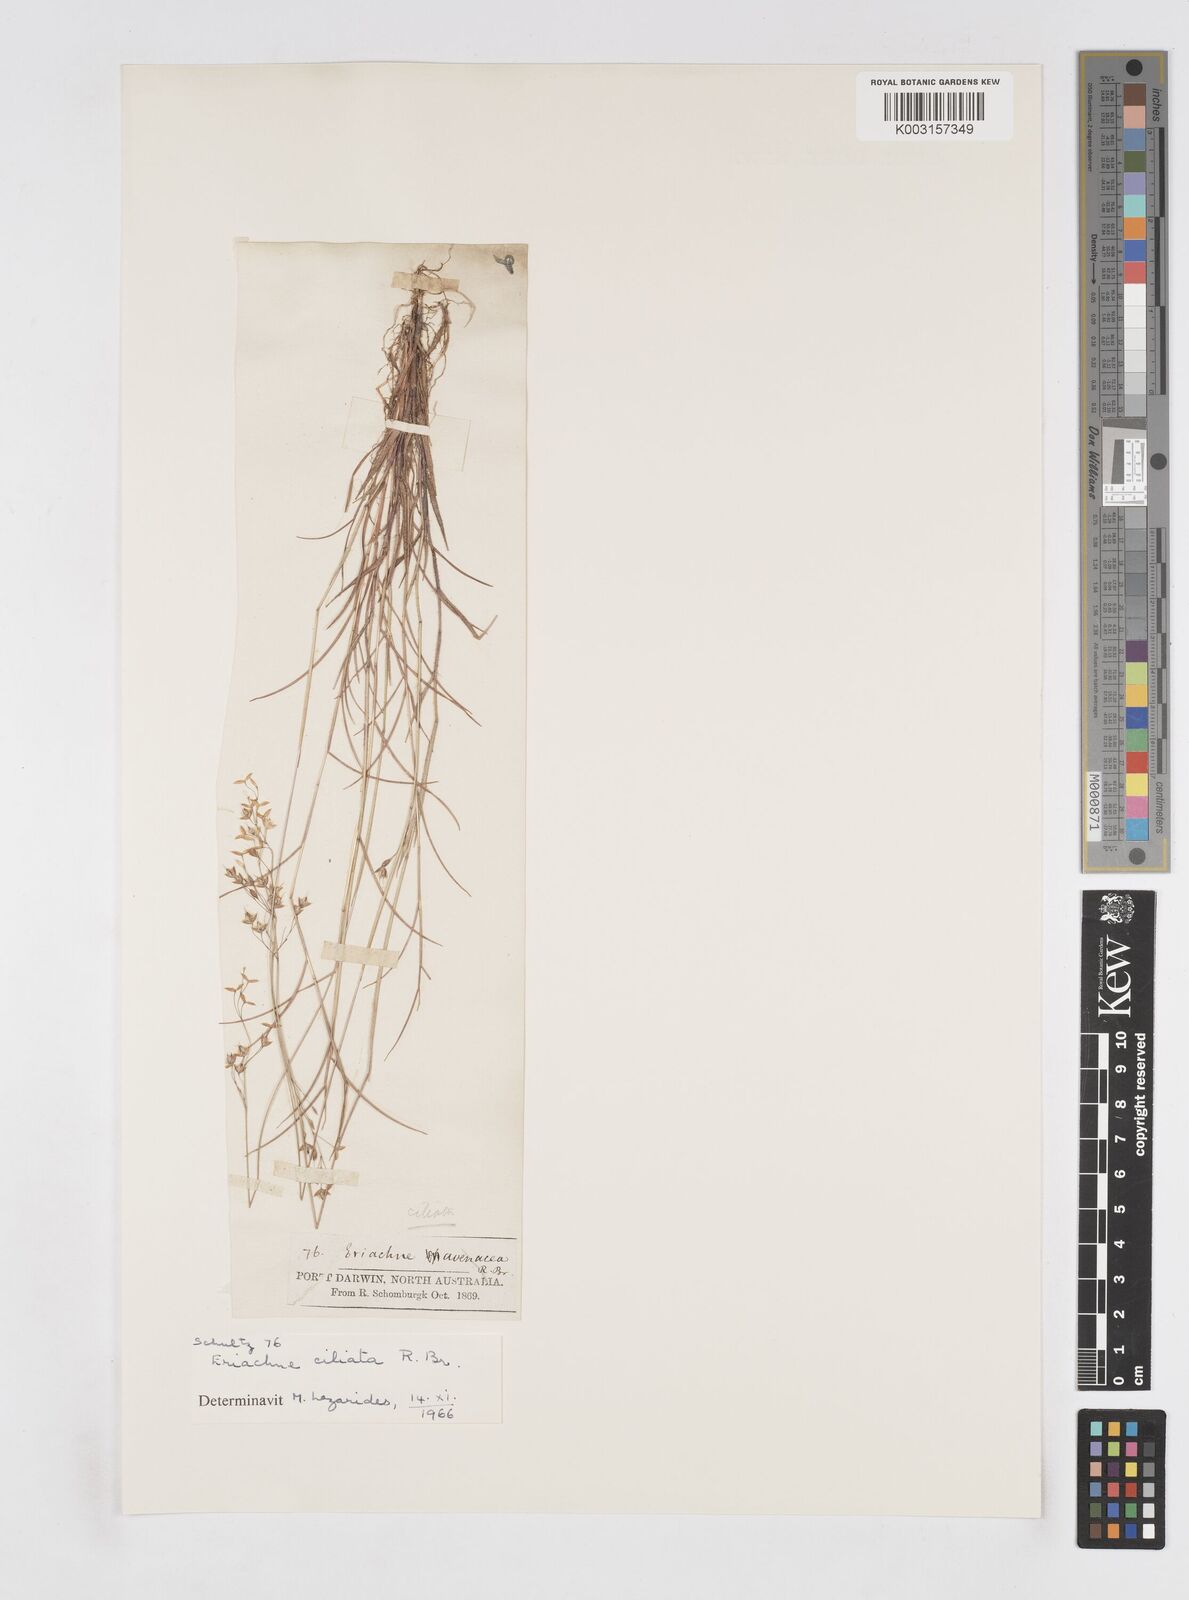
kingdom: Plantae
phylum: Tracheophyta
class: Liliopsida
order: Poales
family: Poaceae
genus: Eriachne
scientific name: Eriachne ciliata
